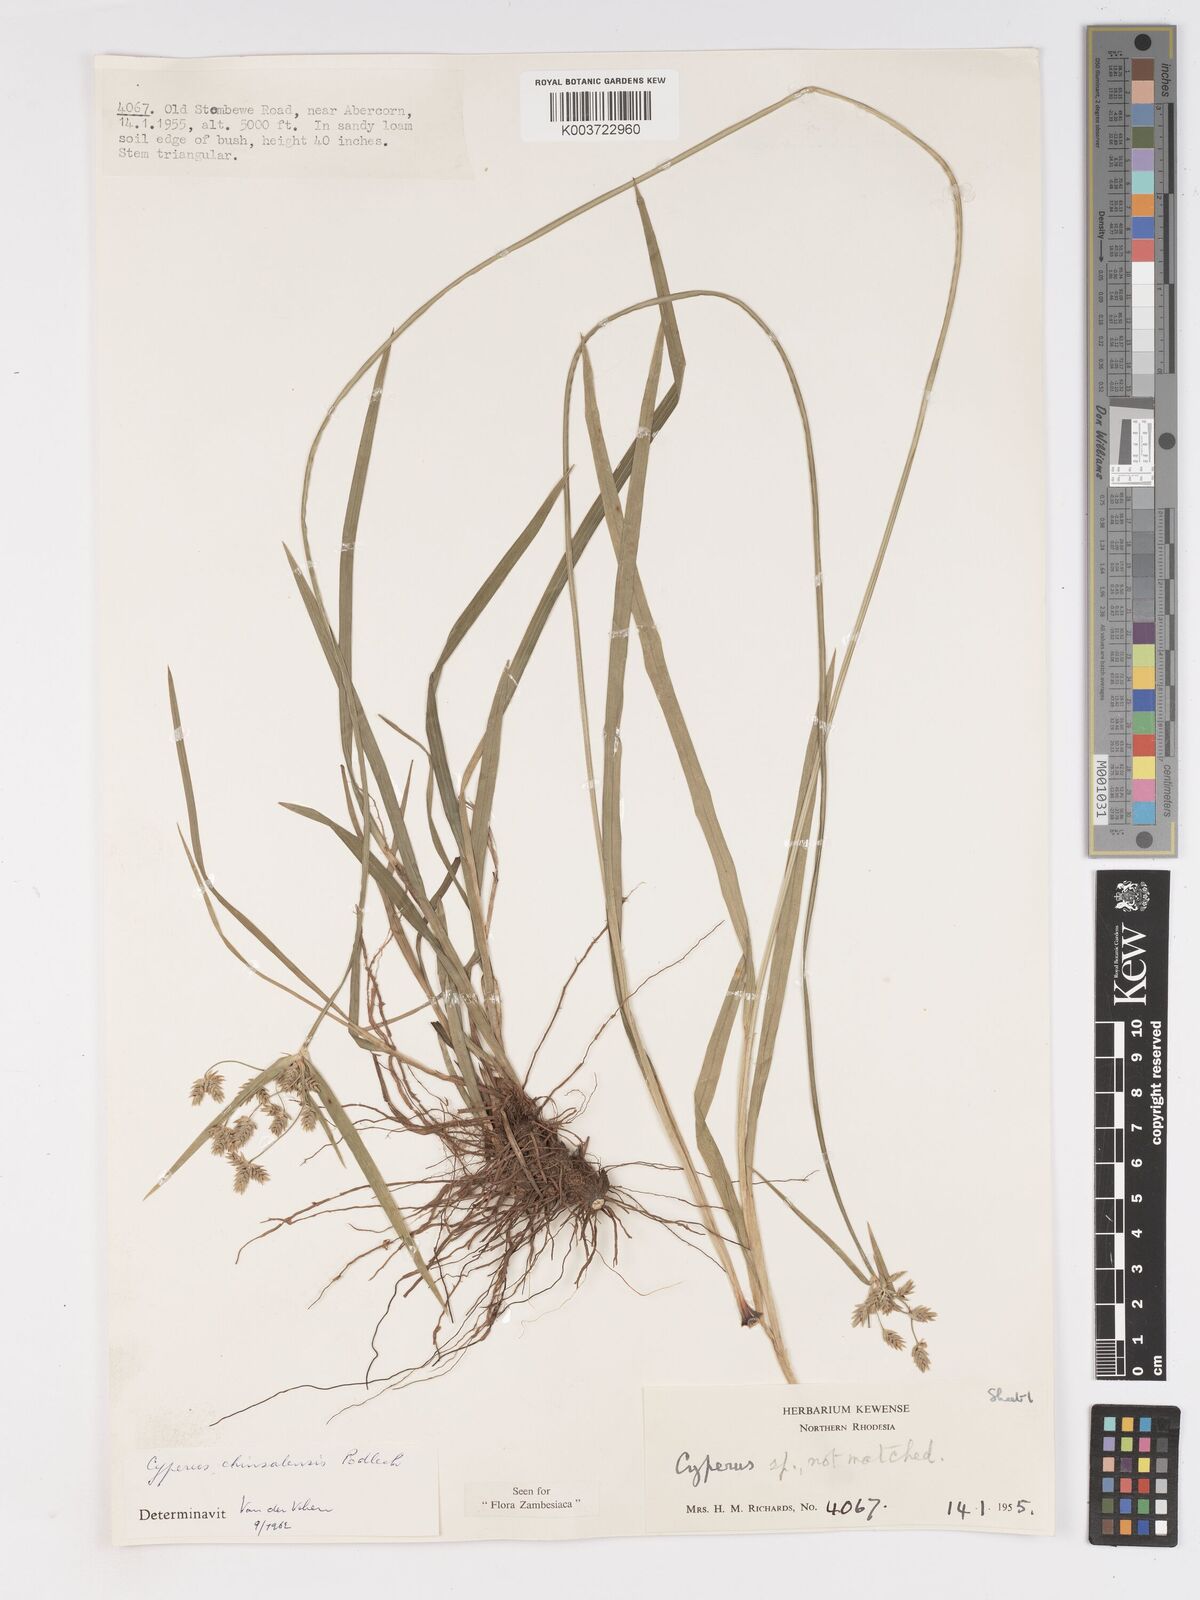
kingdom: Plantae
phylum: Tracheophyta
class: Liliopsida
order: Poales
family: Cyperaceae
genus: Cyperus
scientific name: Cyperus chinsalensis
